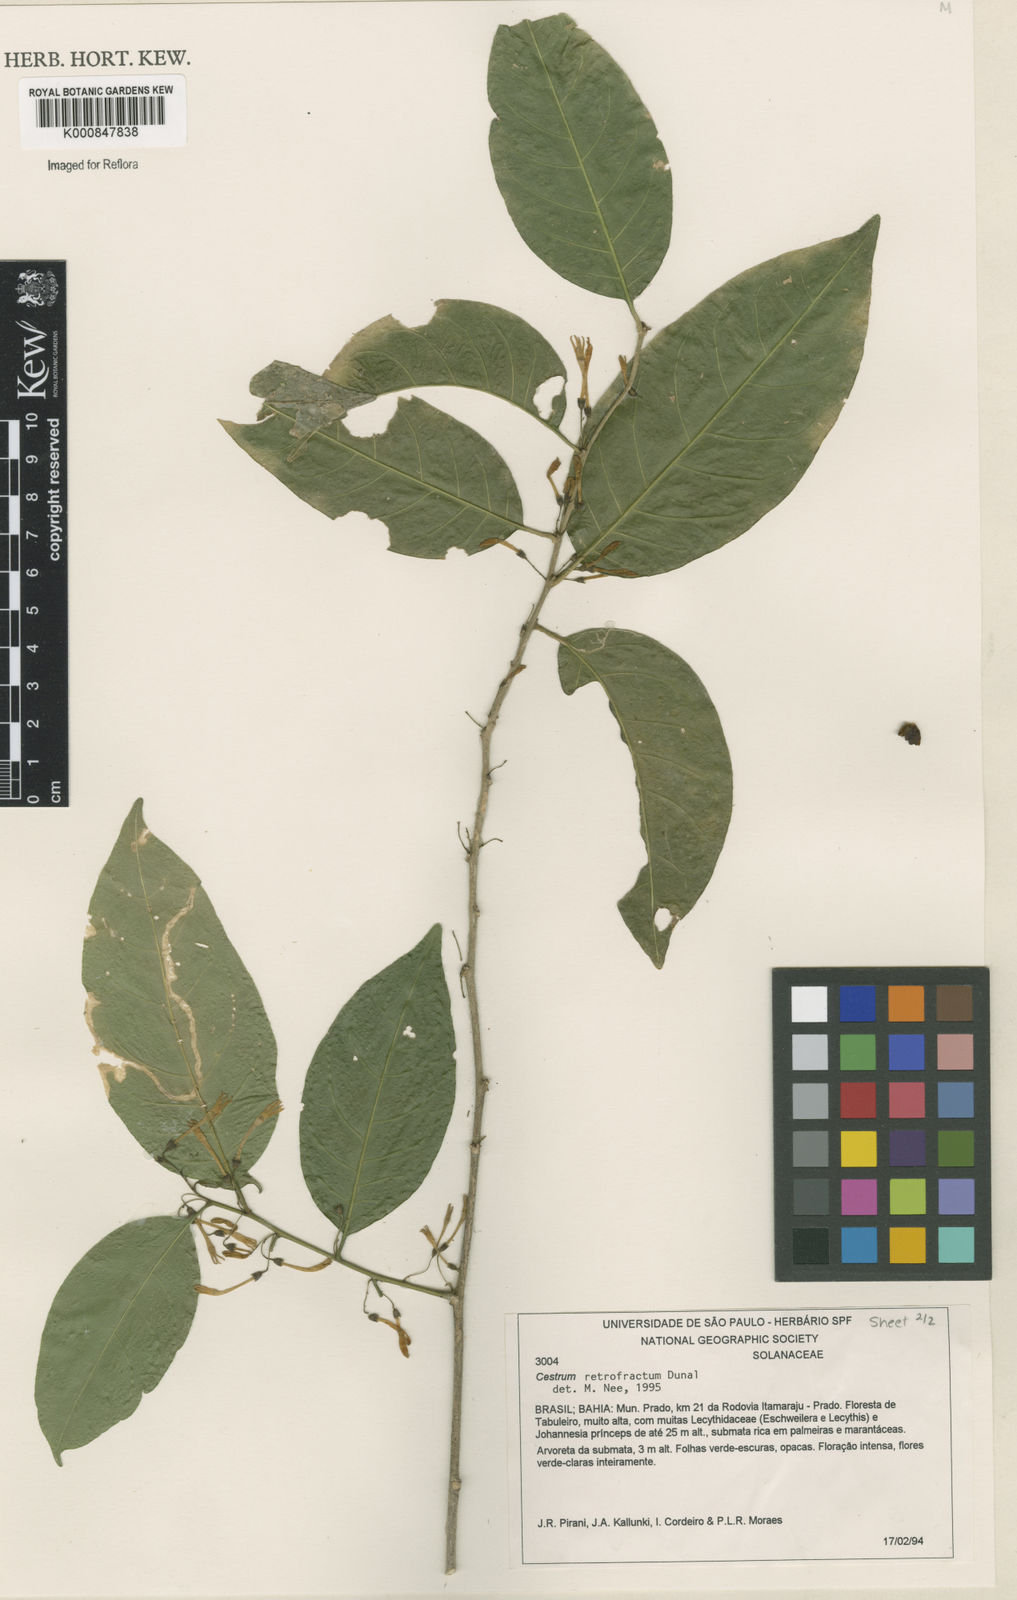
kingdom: Plantae
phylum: Tracheophyta
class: Magnoliopsida
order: Solanales
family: Solanaceae
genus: Cestrum
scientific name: Cestrum retrofractum
